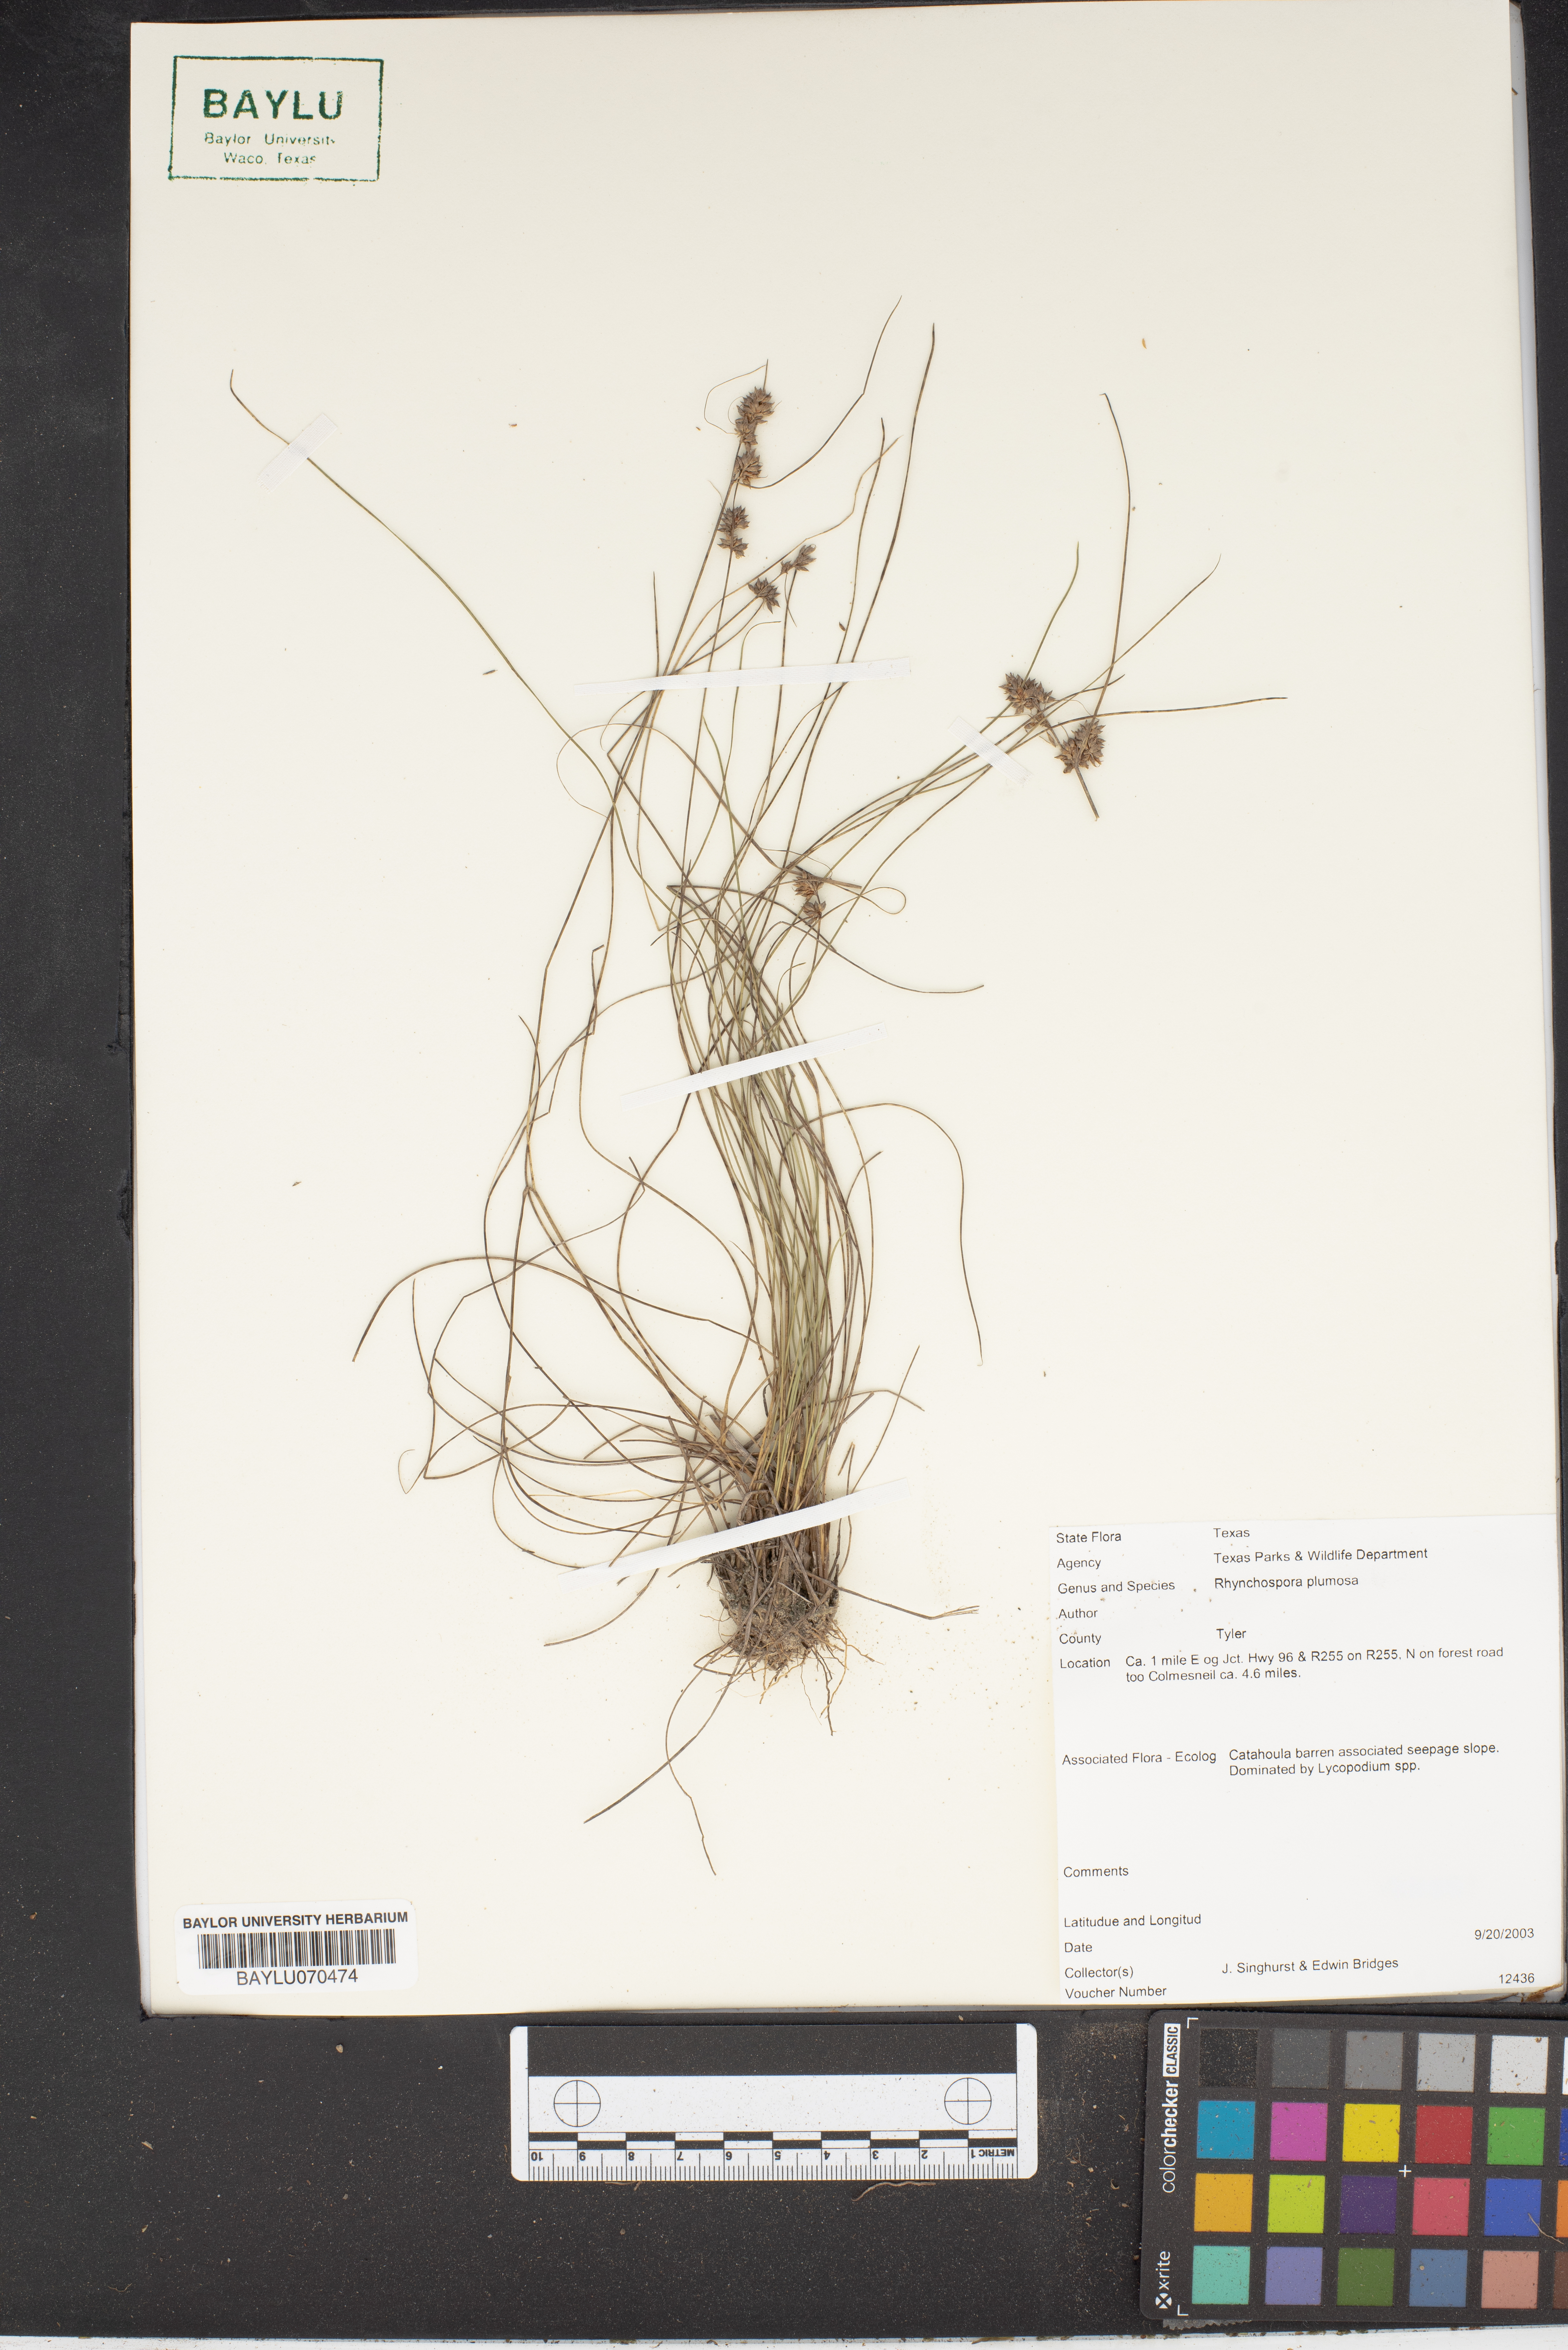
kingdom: Plantae
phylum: Tracheophyta
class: Liliopsida
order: Poales
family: Cyperaceae
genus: Rhynchospora
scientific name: Rhynchospora plumosa
